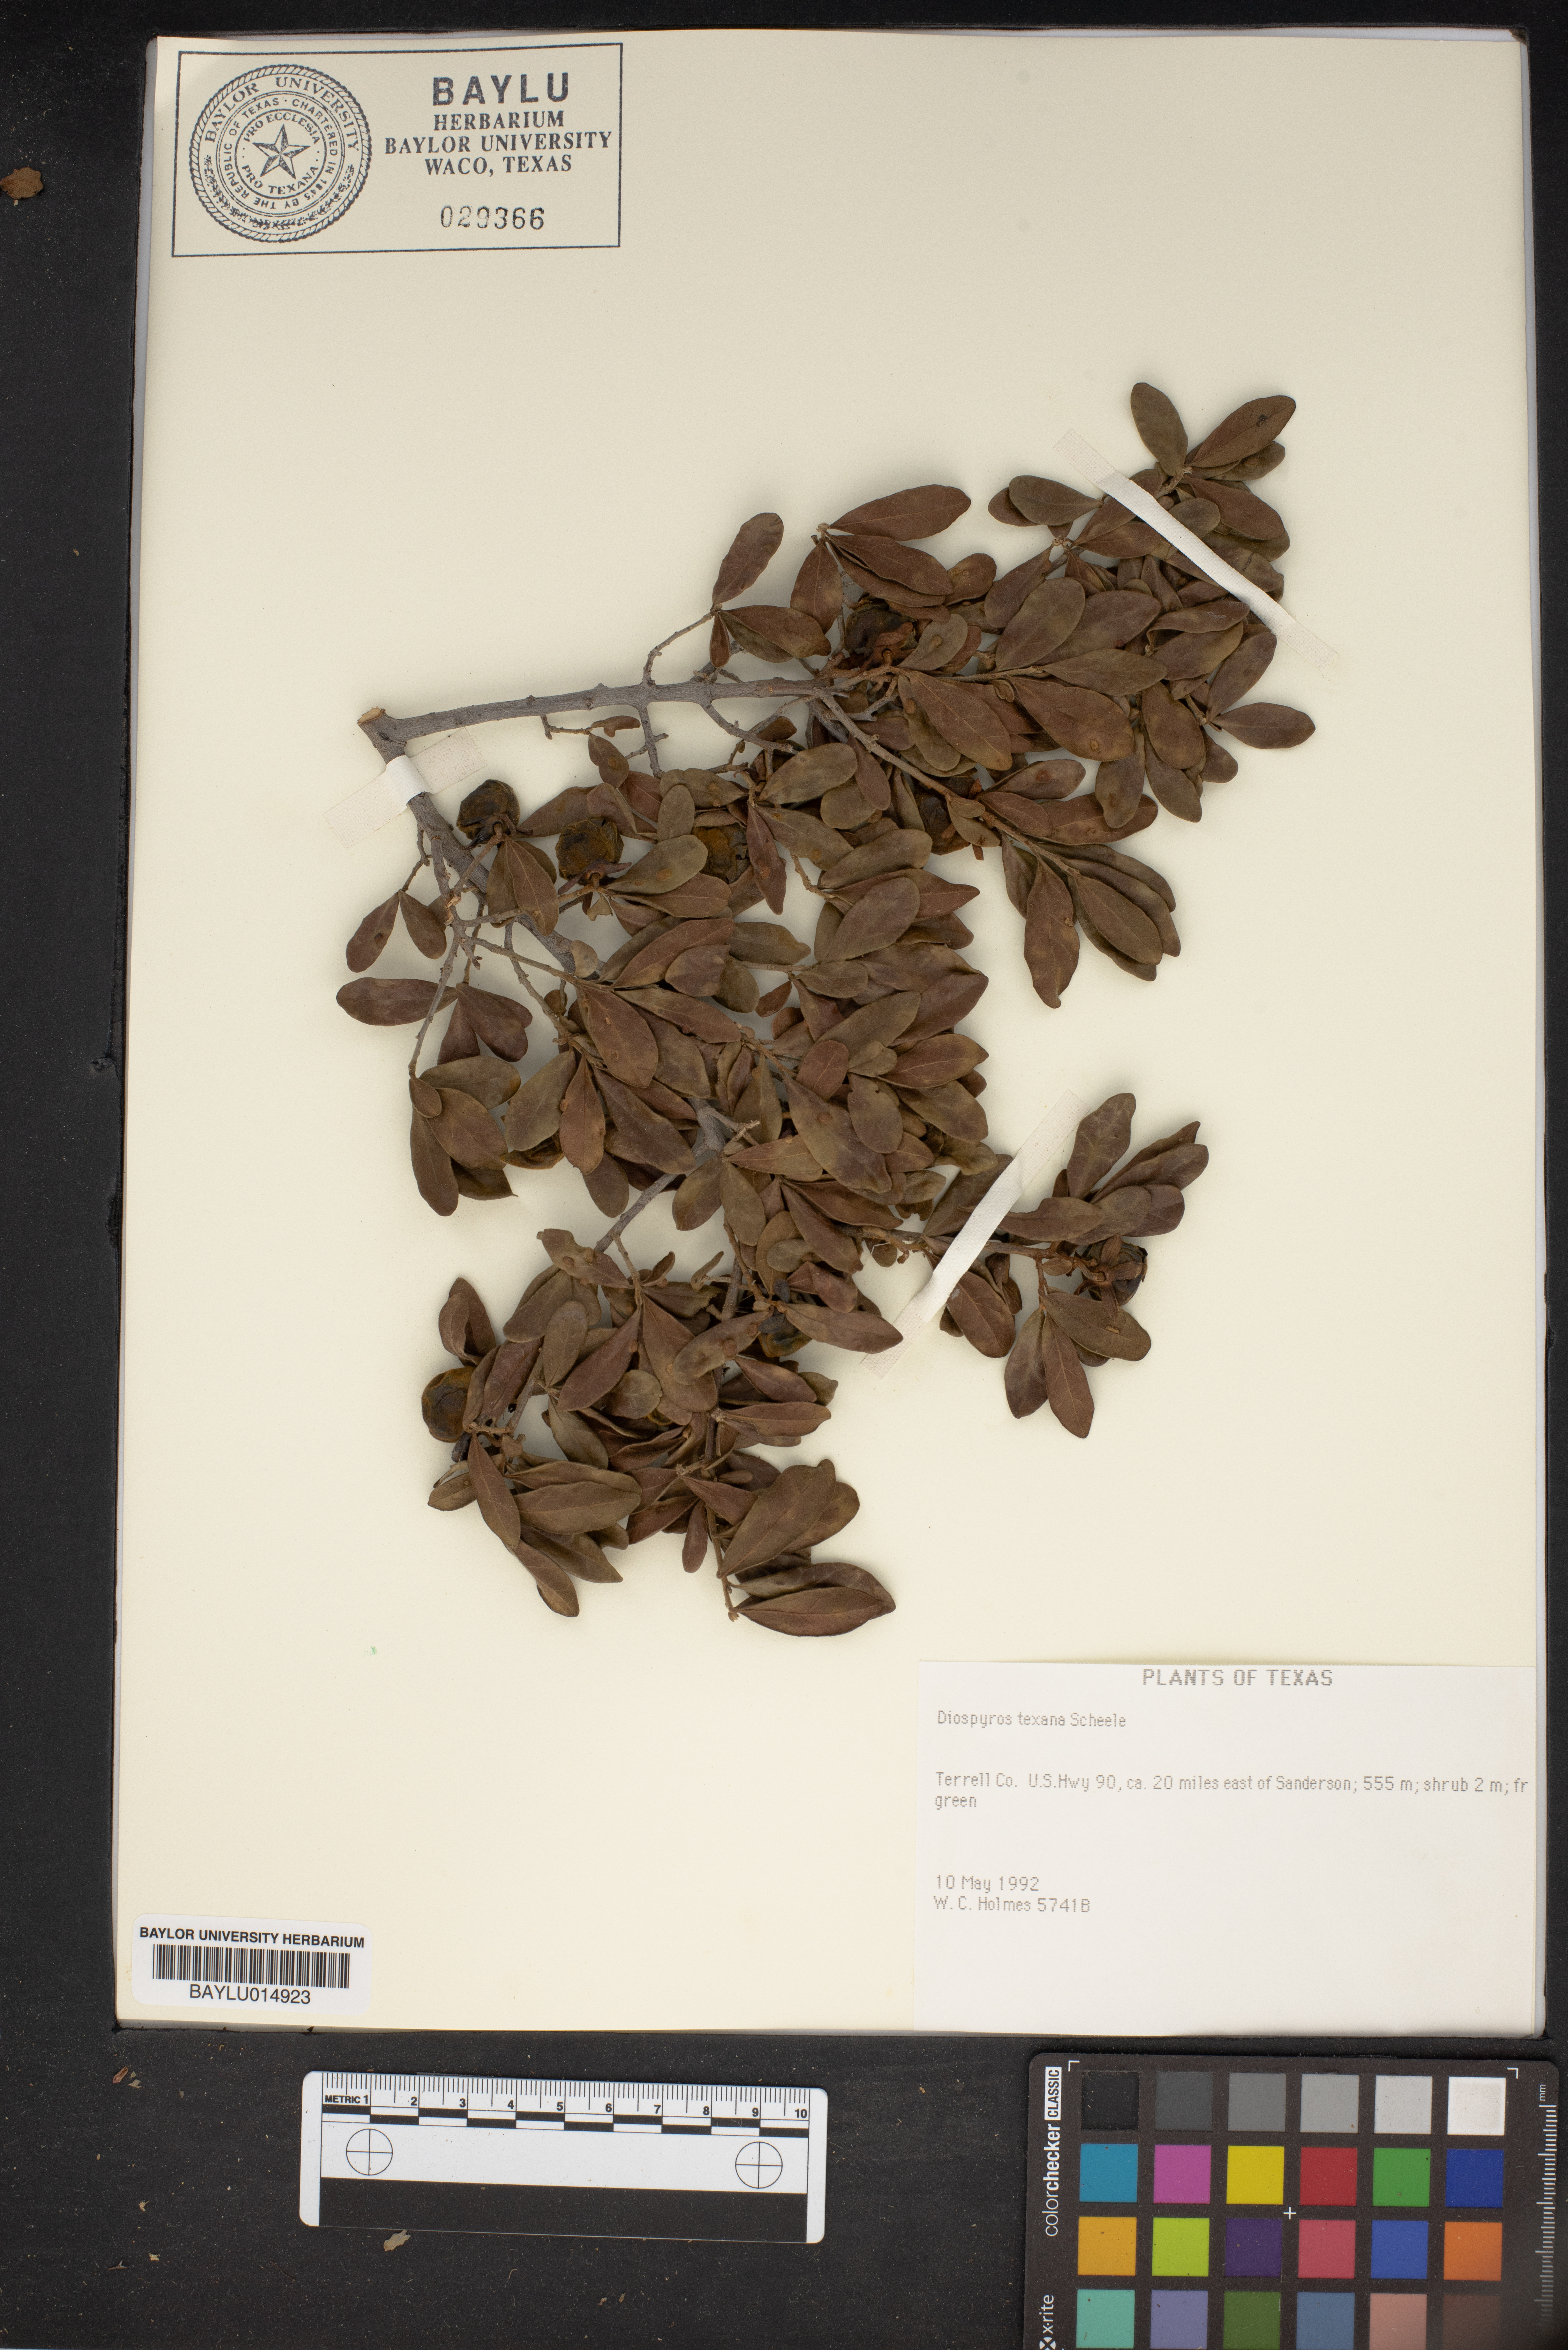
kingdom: Plantae
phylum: Tracheophyta
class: Magnoliopsida
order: Ericales
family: Ebenaceae
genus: Diospyros
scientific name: Diospyros texana
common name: Texas persimmon
